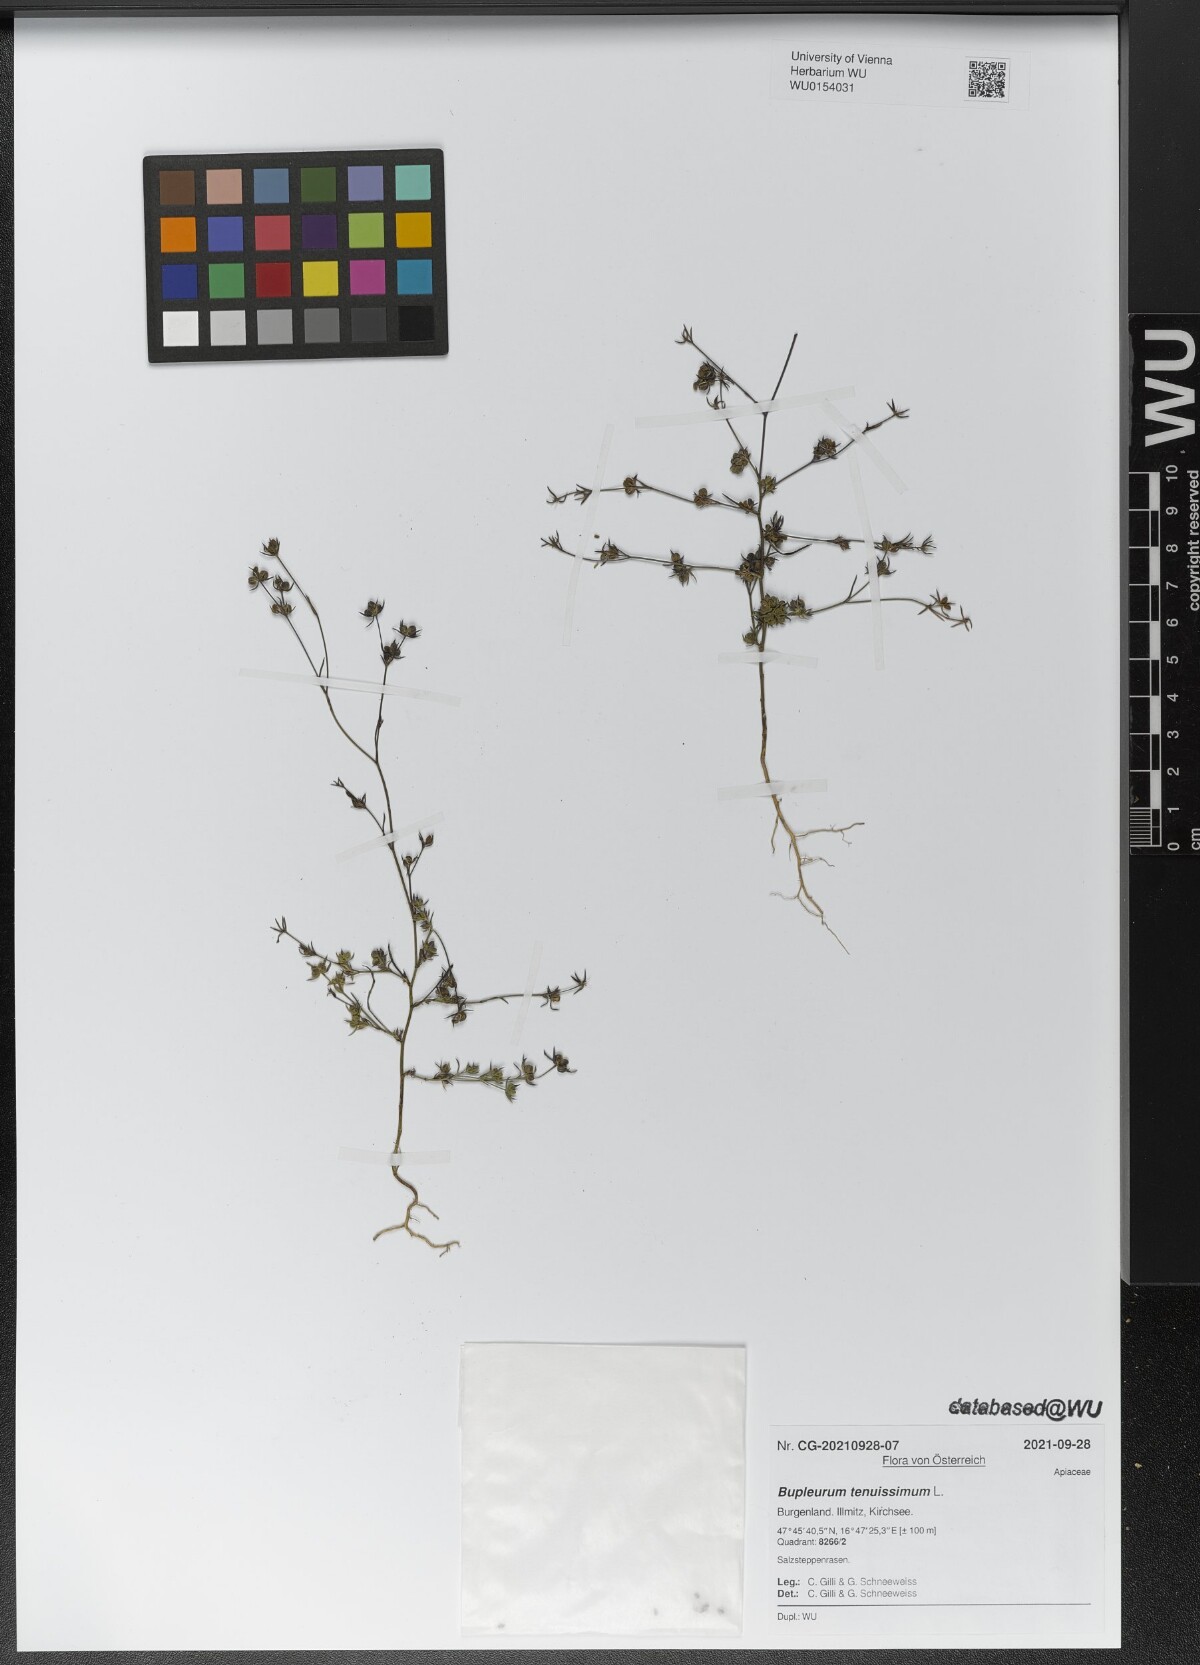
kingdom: Plantae
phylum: Tracheophyta
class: Magnoliopsida
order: Apiales
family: Apiaceae
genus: Bupleurum
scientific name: Bupleurum tenuissimum
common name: Slender hare's-ear
